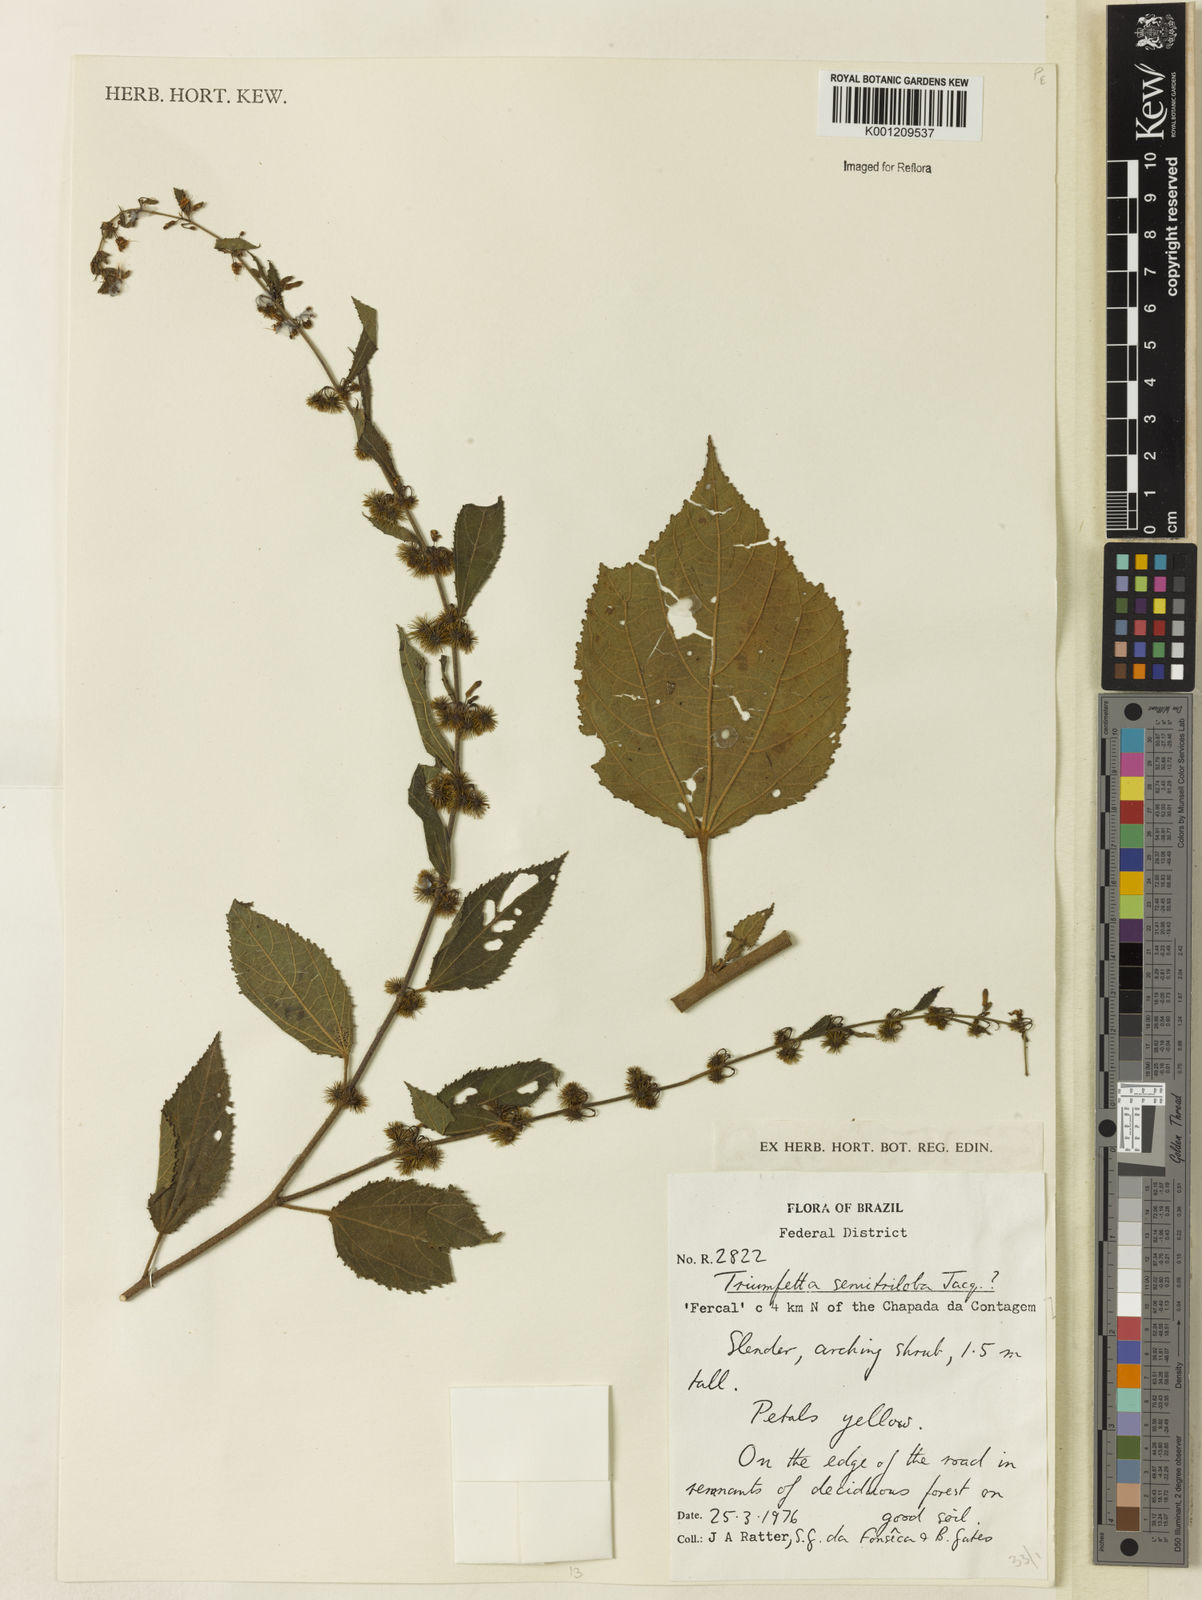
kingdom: Plantae
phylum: Tracheophyta
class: Magnoliopsida
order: Malvales
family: Malvaceae
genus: Triumfetta
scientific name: Triumfetta semitriloba
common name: Sacramento burbark
